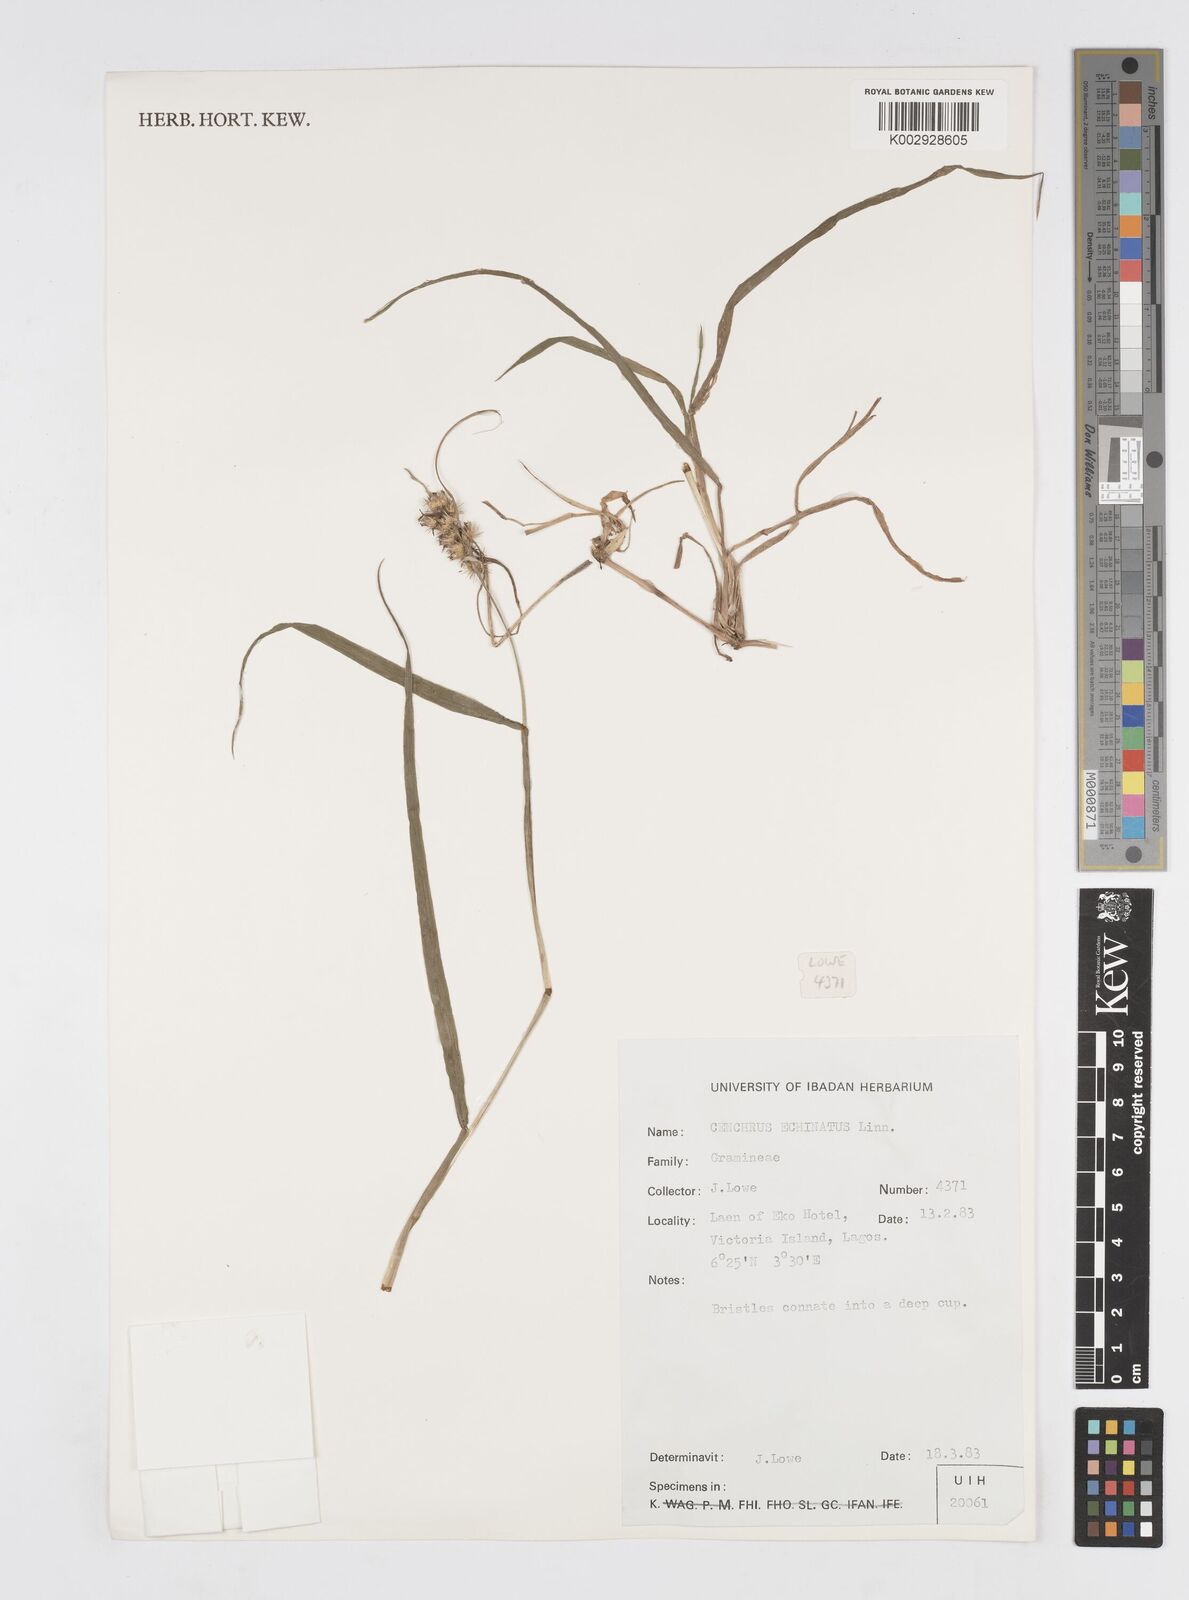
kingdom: Plantae
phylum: Tracheophyta
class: Liliopsida
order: Poales
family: Poaceae
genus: Cenchrus
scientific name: Cenchrus echinatus
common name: Southern sandbur
